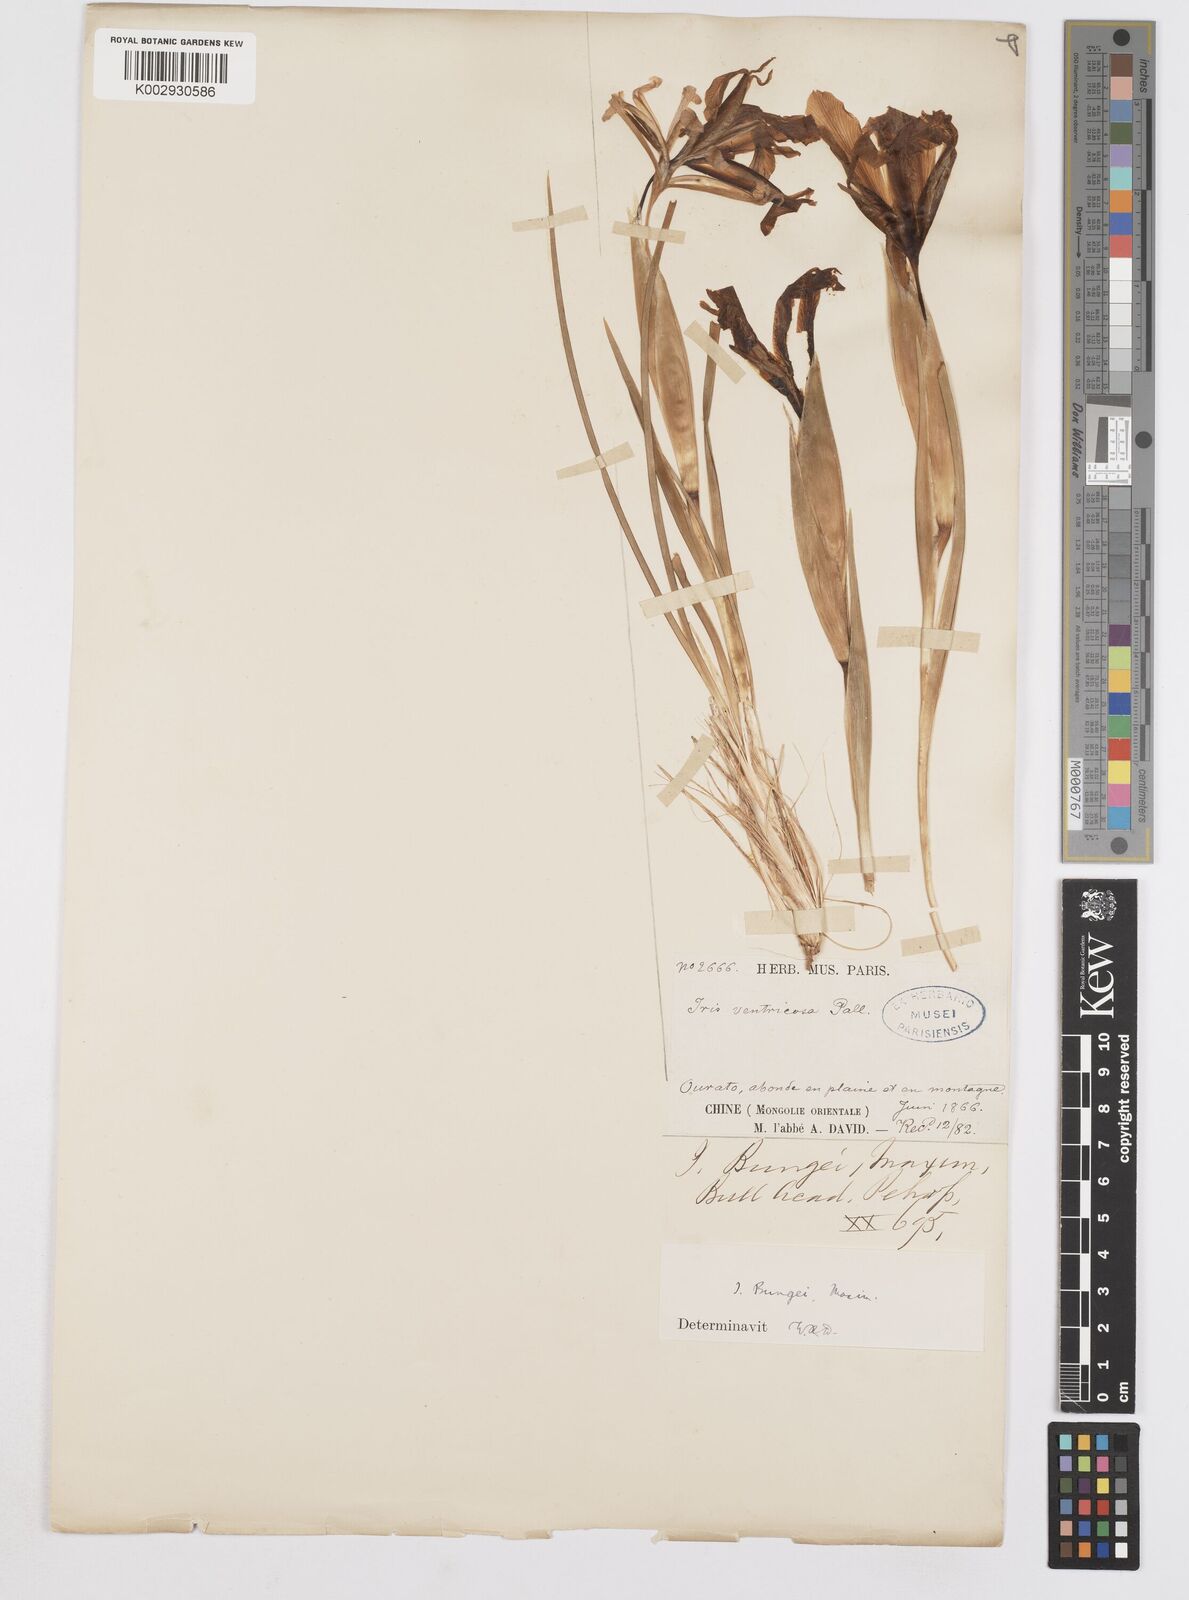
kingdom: Plantae
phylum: Tracheophyta
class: Liliopsida
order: Asparagales
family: Iridaceae
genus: Iris
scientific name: Iris bungei
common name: Large-bract iris
